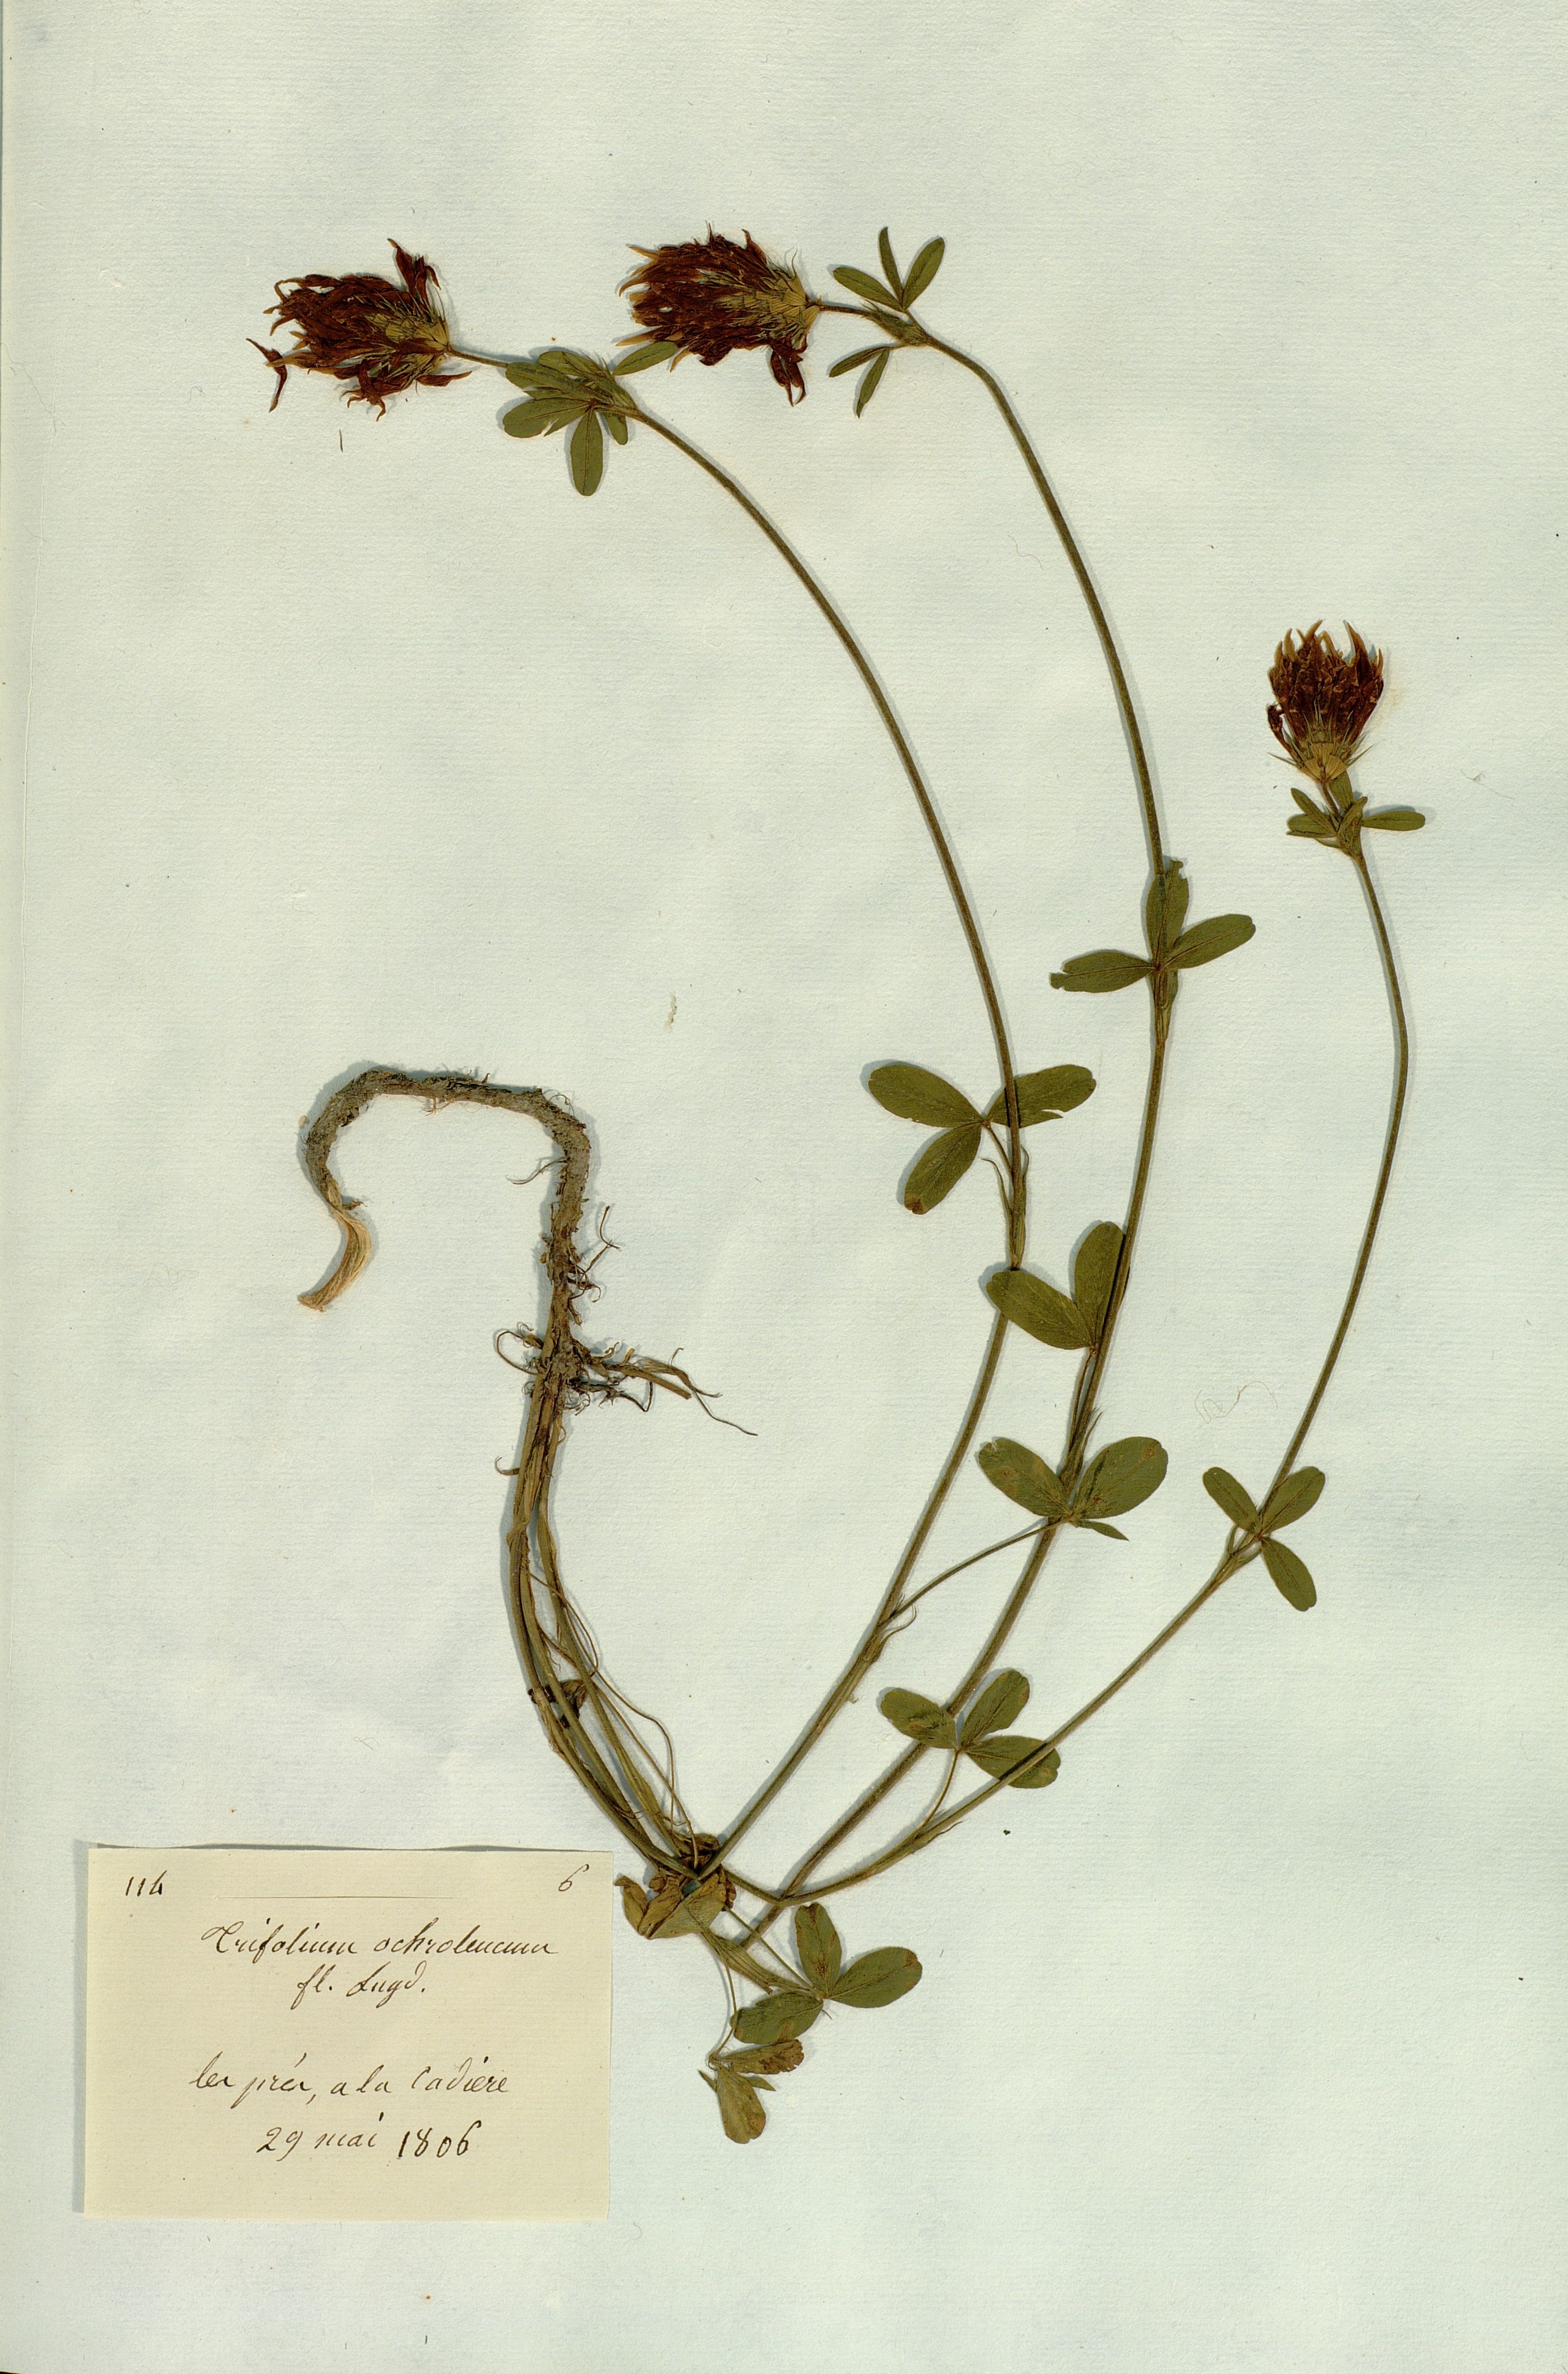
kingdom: Plantae
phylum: Tracheophyta
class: Magnoliopsida
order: Fabales
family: Fabaceae
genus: Trifolium
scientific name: Trifolium
